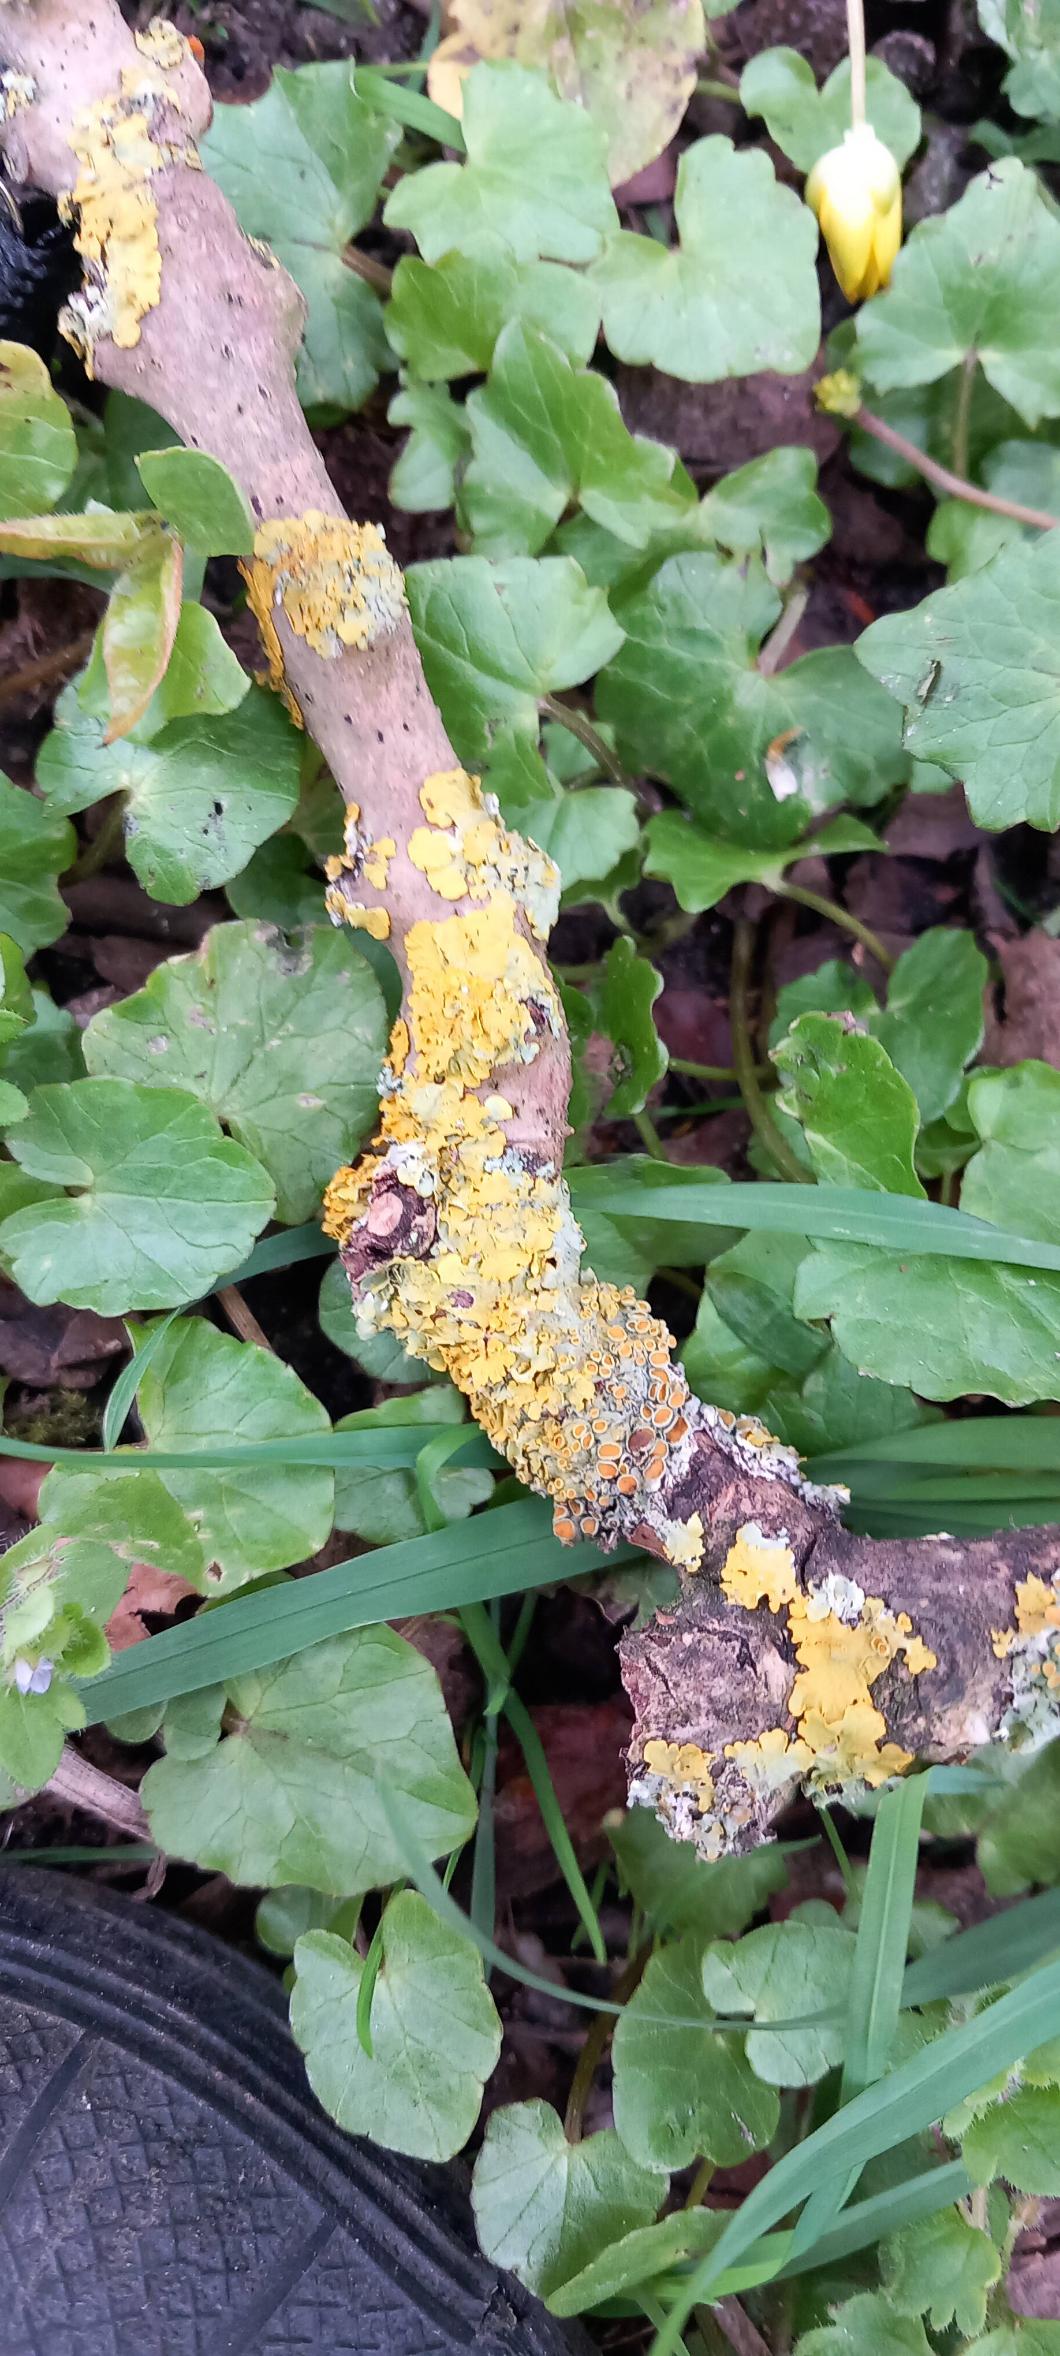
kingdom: Fungi
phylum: Ascomycota
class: Lecanoromycetes
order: Teloschistales
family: Teloschistaceae
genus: Xanthoria
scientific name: Xanthoria parietina
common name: Almindelig væggelav
